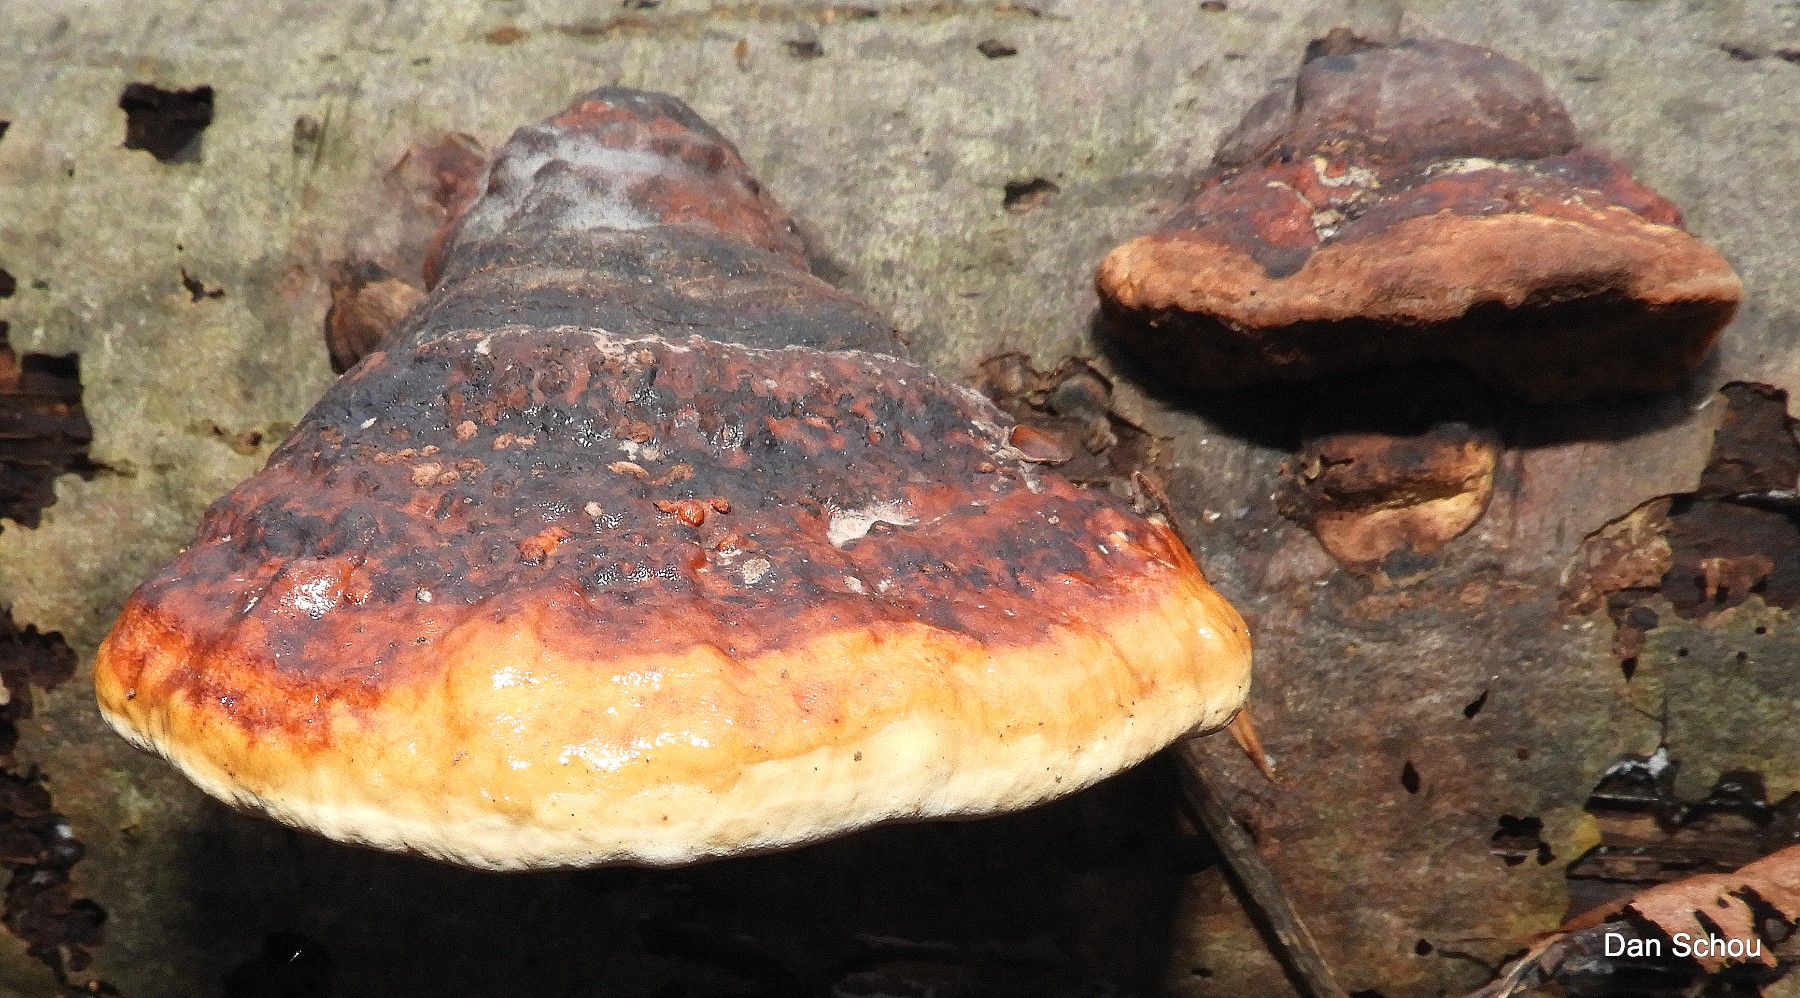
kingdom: Fungi
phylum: Basidiomycota
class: Agaricomycetes
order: Polyporales
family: Fomitopsidaceae
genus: Fomitopsis
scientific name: Fomitopsis pinicola
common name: randbæltet hovporesvamp
